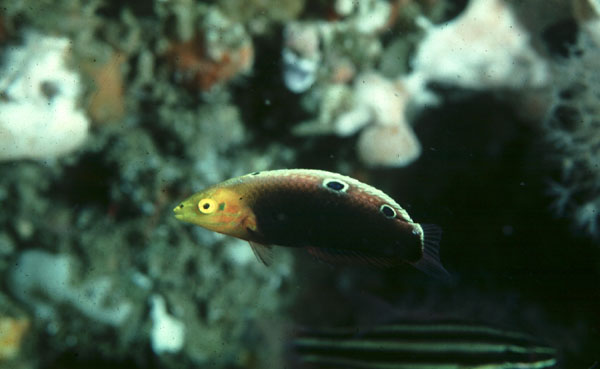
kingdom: Animalia
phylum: Chordata
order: Perciformes
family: Labridae
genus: Halichoeres
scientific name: Halichoeres iridis
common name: Rainbow wrasse
